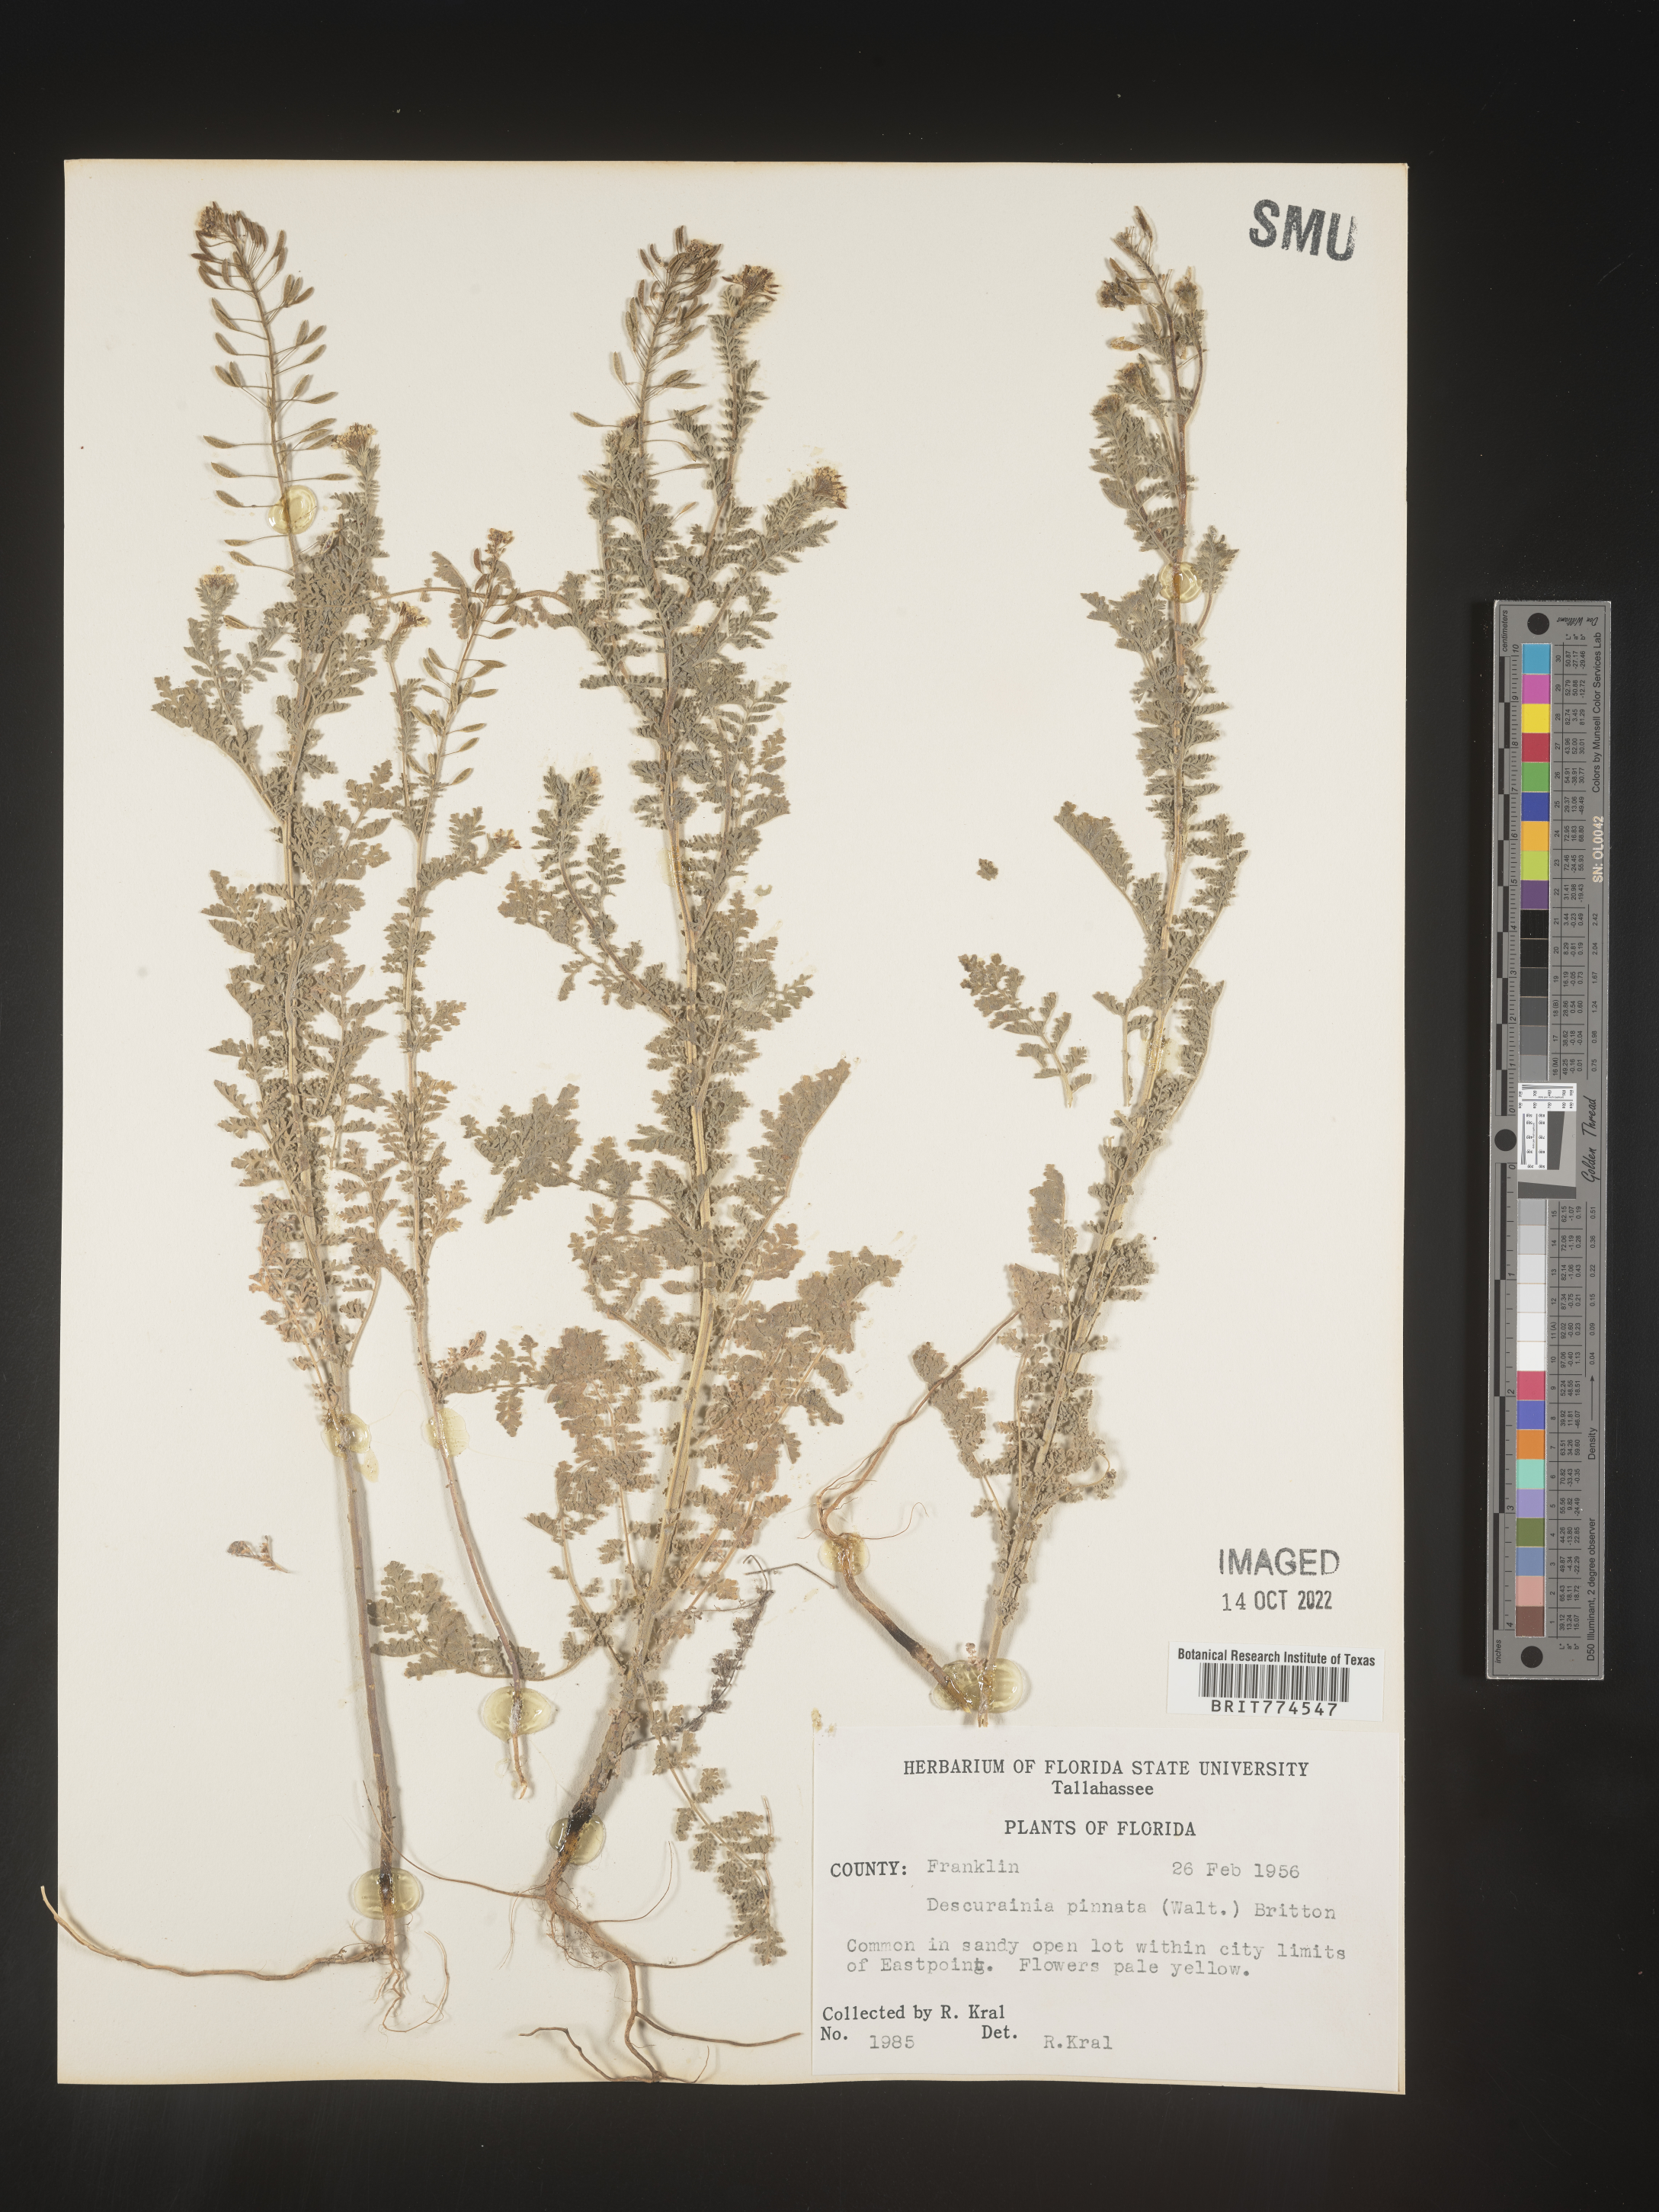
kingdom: Plantae
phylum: Tracheophyta
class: Magnoliopsida
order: Brassicales
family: Brassicaceae
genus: Descurainia
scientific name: Descurainia pinnata
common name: Western tansy mustard
